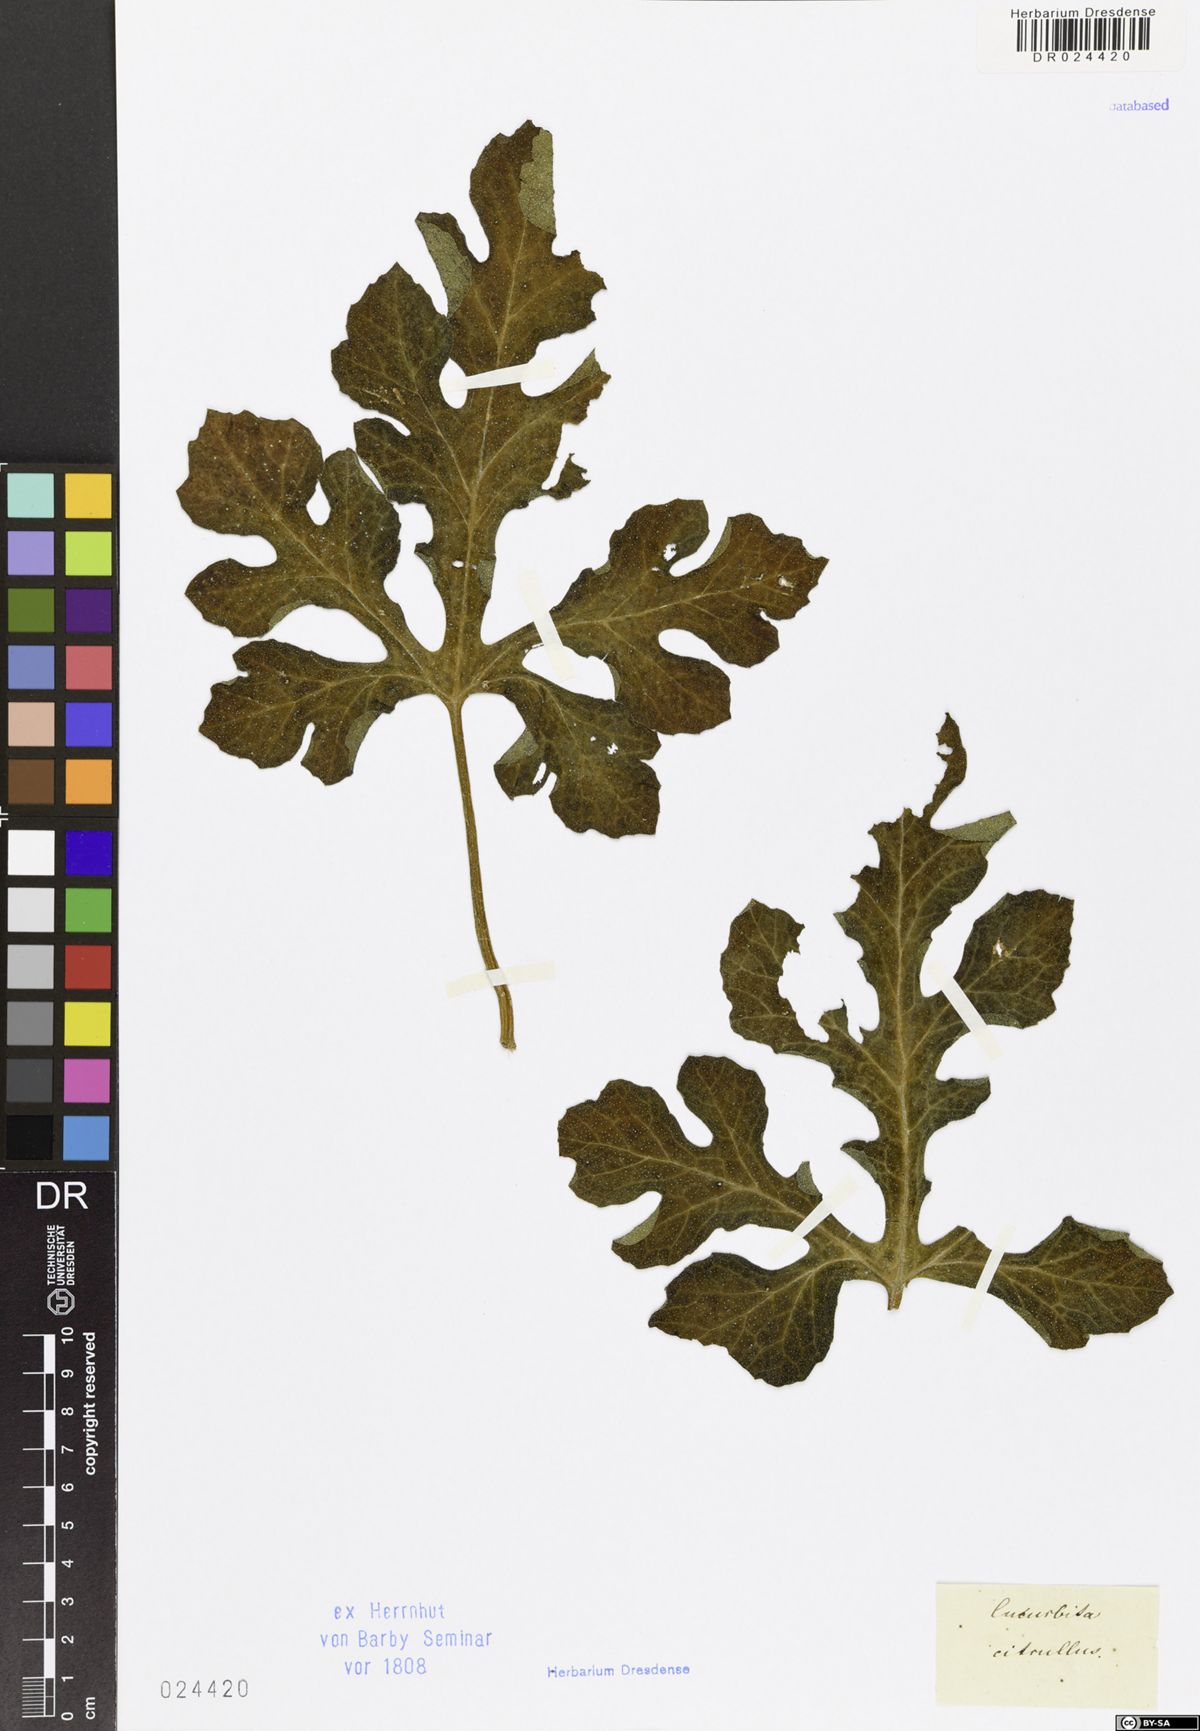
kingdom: Plantae
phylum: Tracheophyta
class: Magnoliopsida
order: Cucurbitales
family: Cucurbitaceae
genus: Citrullus
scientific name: Citrullus lanatus
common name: Watermelon
